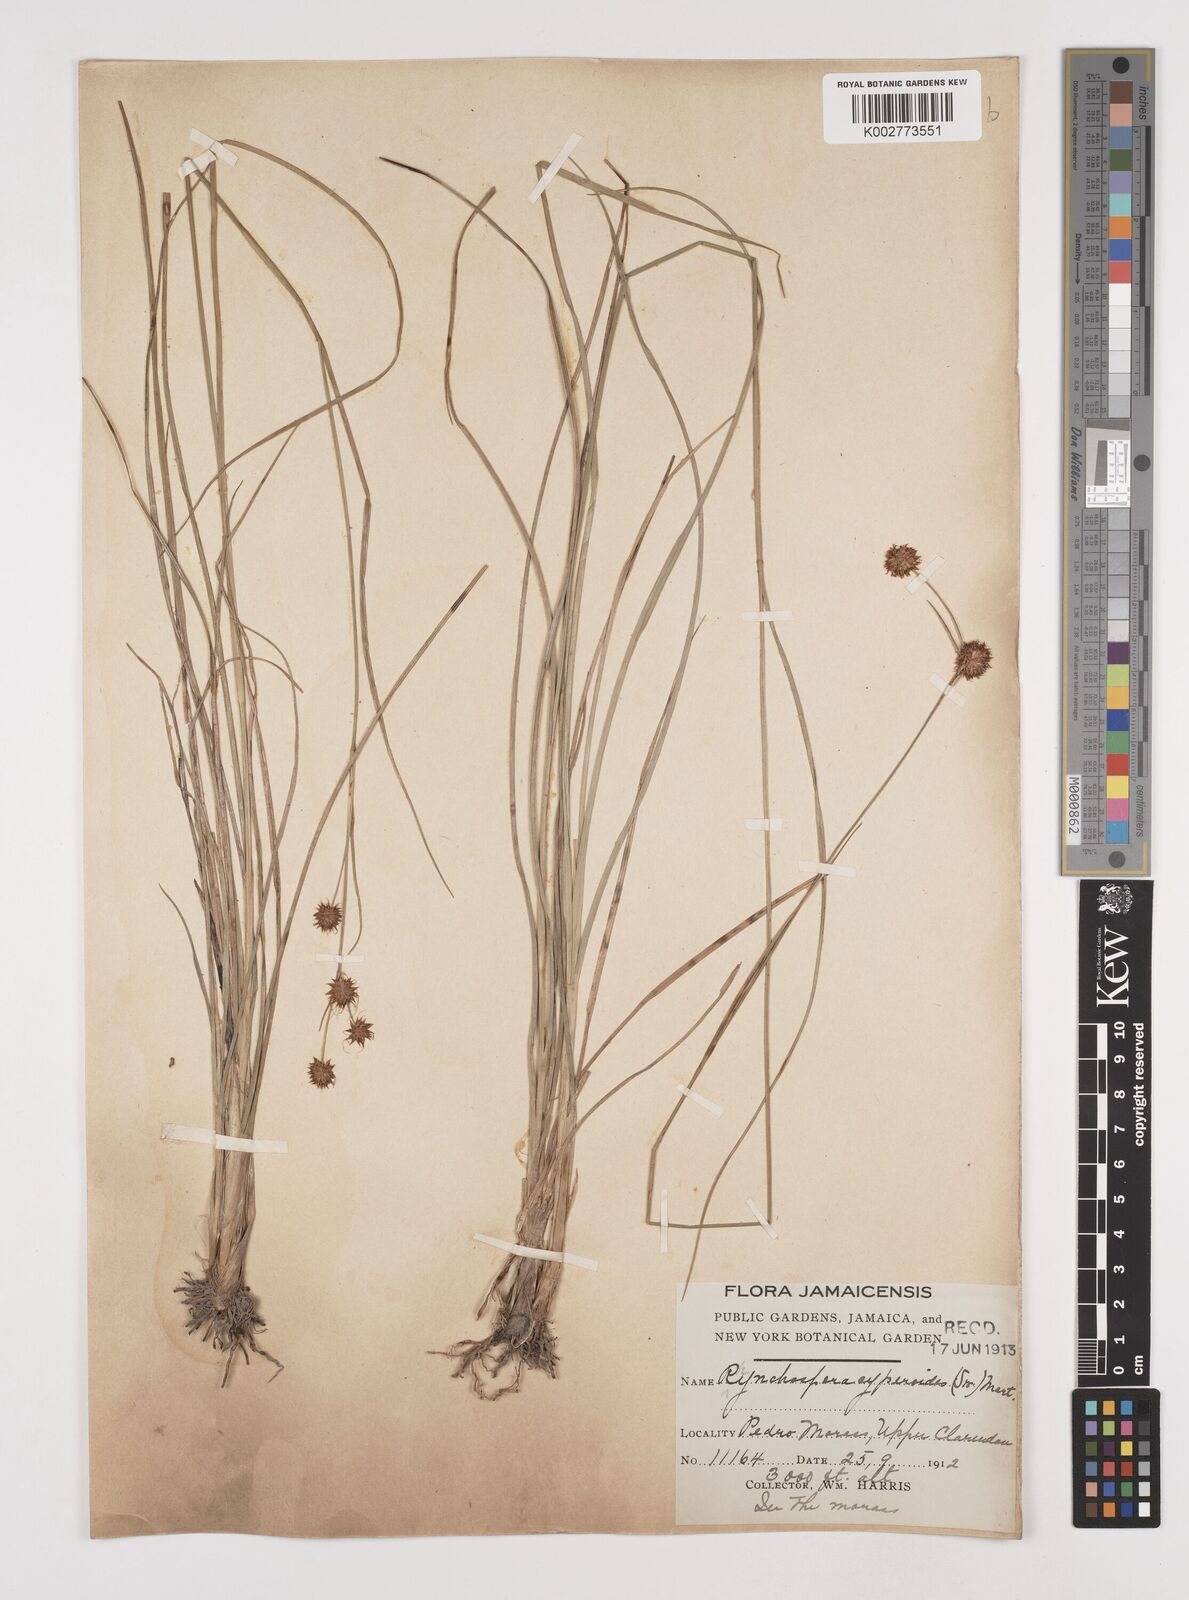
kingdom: Plantae
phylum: Tracheophyta
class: Liliopsida
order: Poales
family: Cyperaceae
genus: Rhynchospora
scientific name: Rhynchospora holoschoenoides
